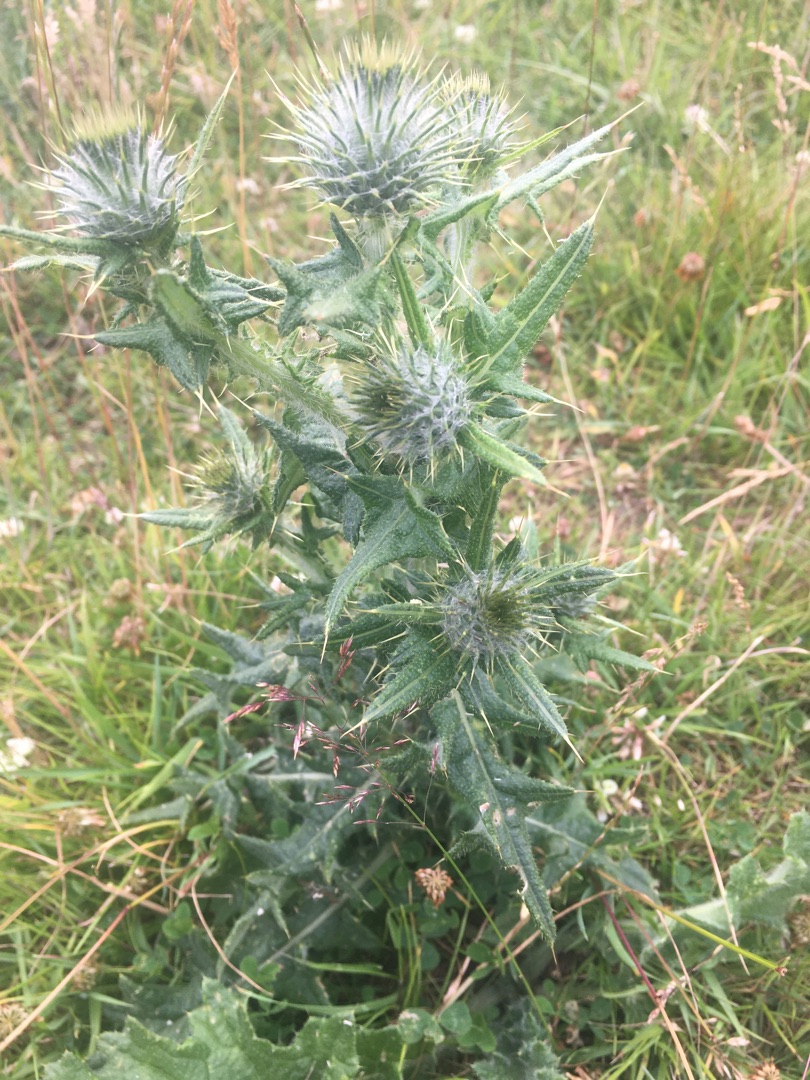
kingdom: Plantae
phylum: Tracheophyta
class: Magnoliopsida
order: Asterales
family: Asteraceae
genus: Cirsium
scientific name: Cirsium vulgare
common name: Horse-tidsel
